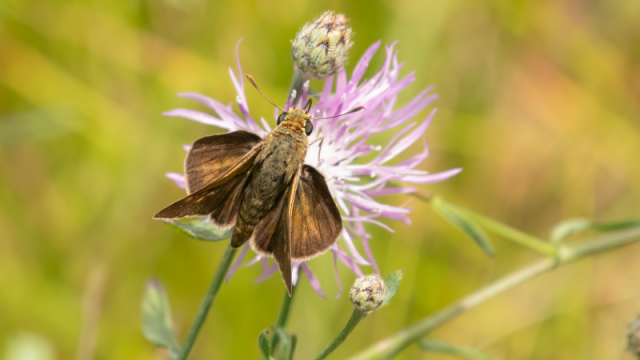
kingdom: Animalia
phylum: Arthropoda
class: Insecta
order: Lepidoptera
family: Hesperiidae
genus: Polites
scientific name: Polites
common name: Crossline Skipper
